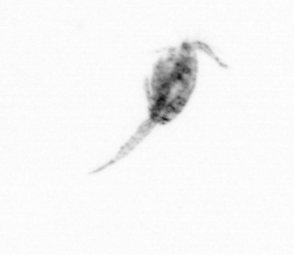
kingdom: Animalia
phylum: Arthropoda
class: Copepoda
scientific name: Copepoda
